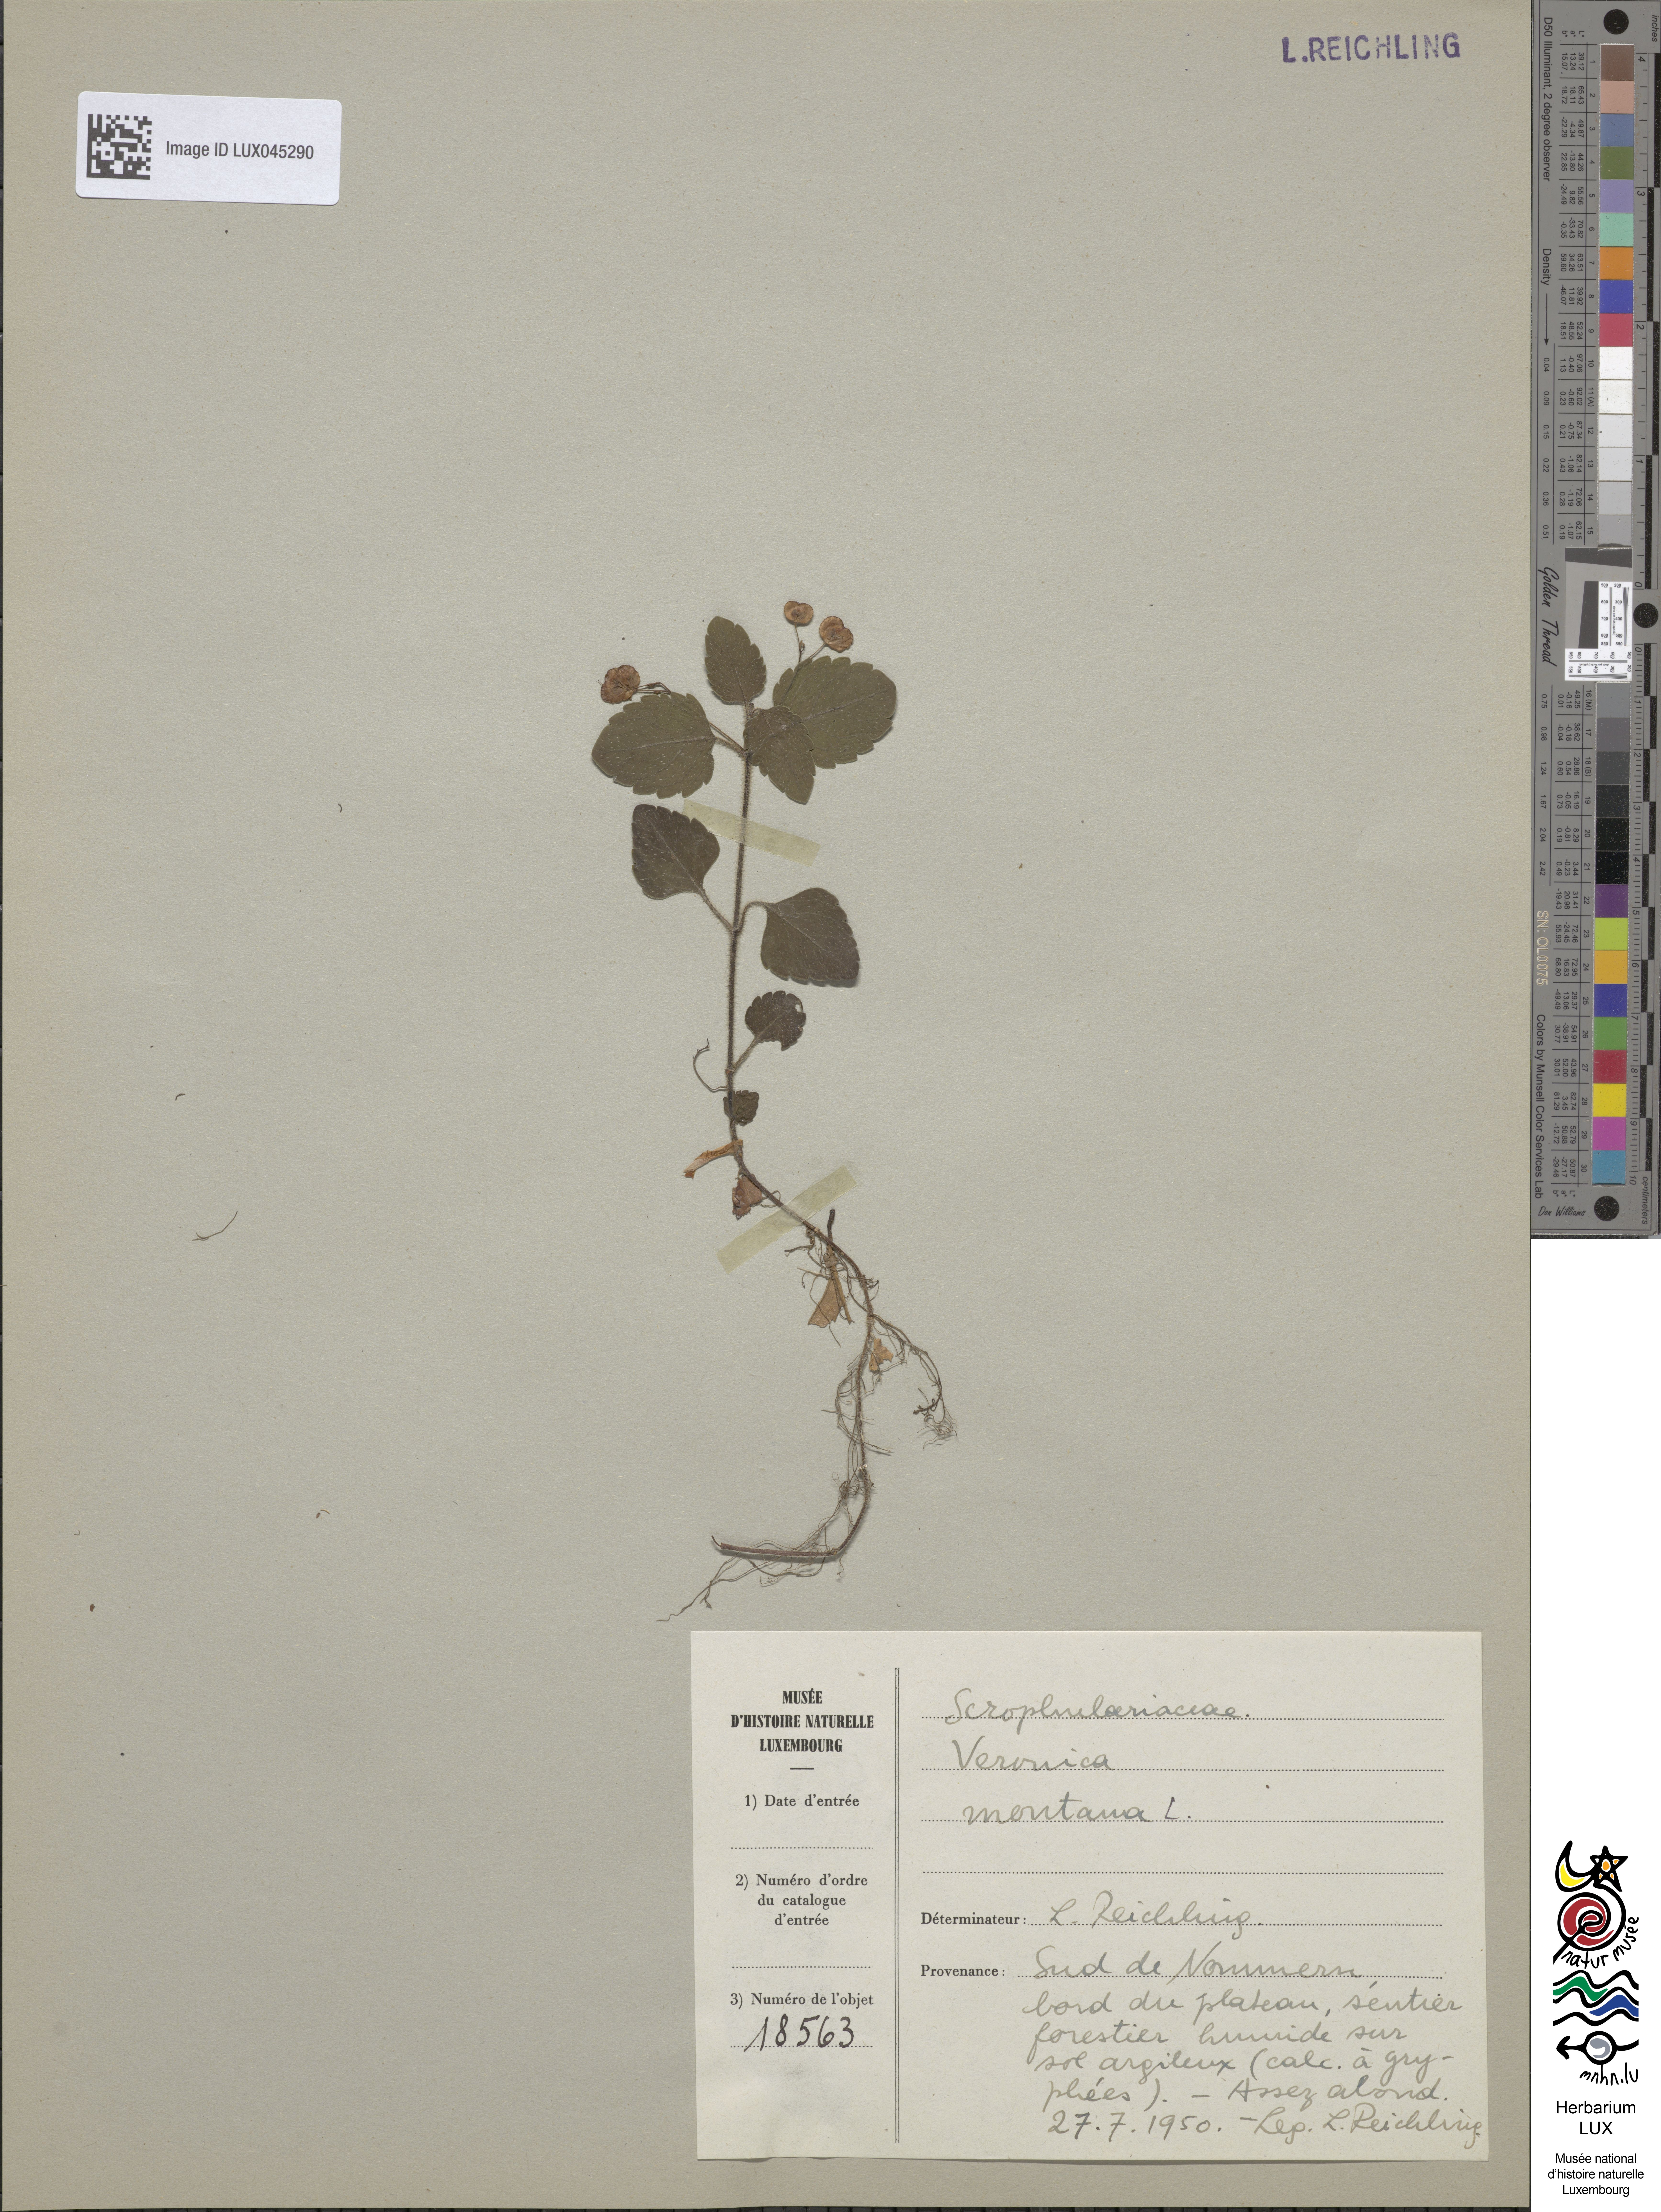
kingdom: Plantae
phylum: Tracheophyta
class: Magnoliopsida
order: Lamiales
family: Plantaginaceae
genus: Veronica
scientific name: Veronica montana
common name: Wood speedwell
